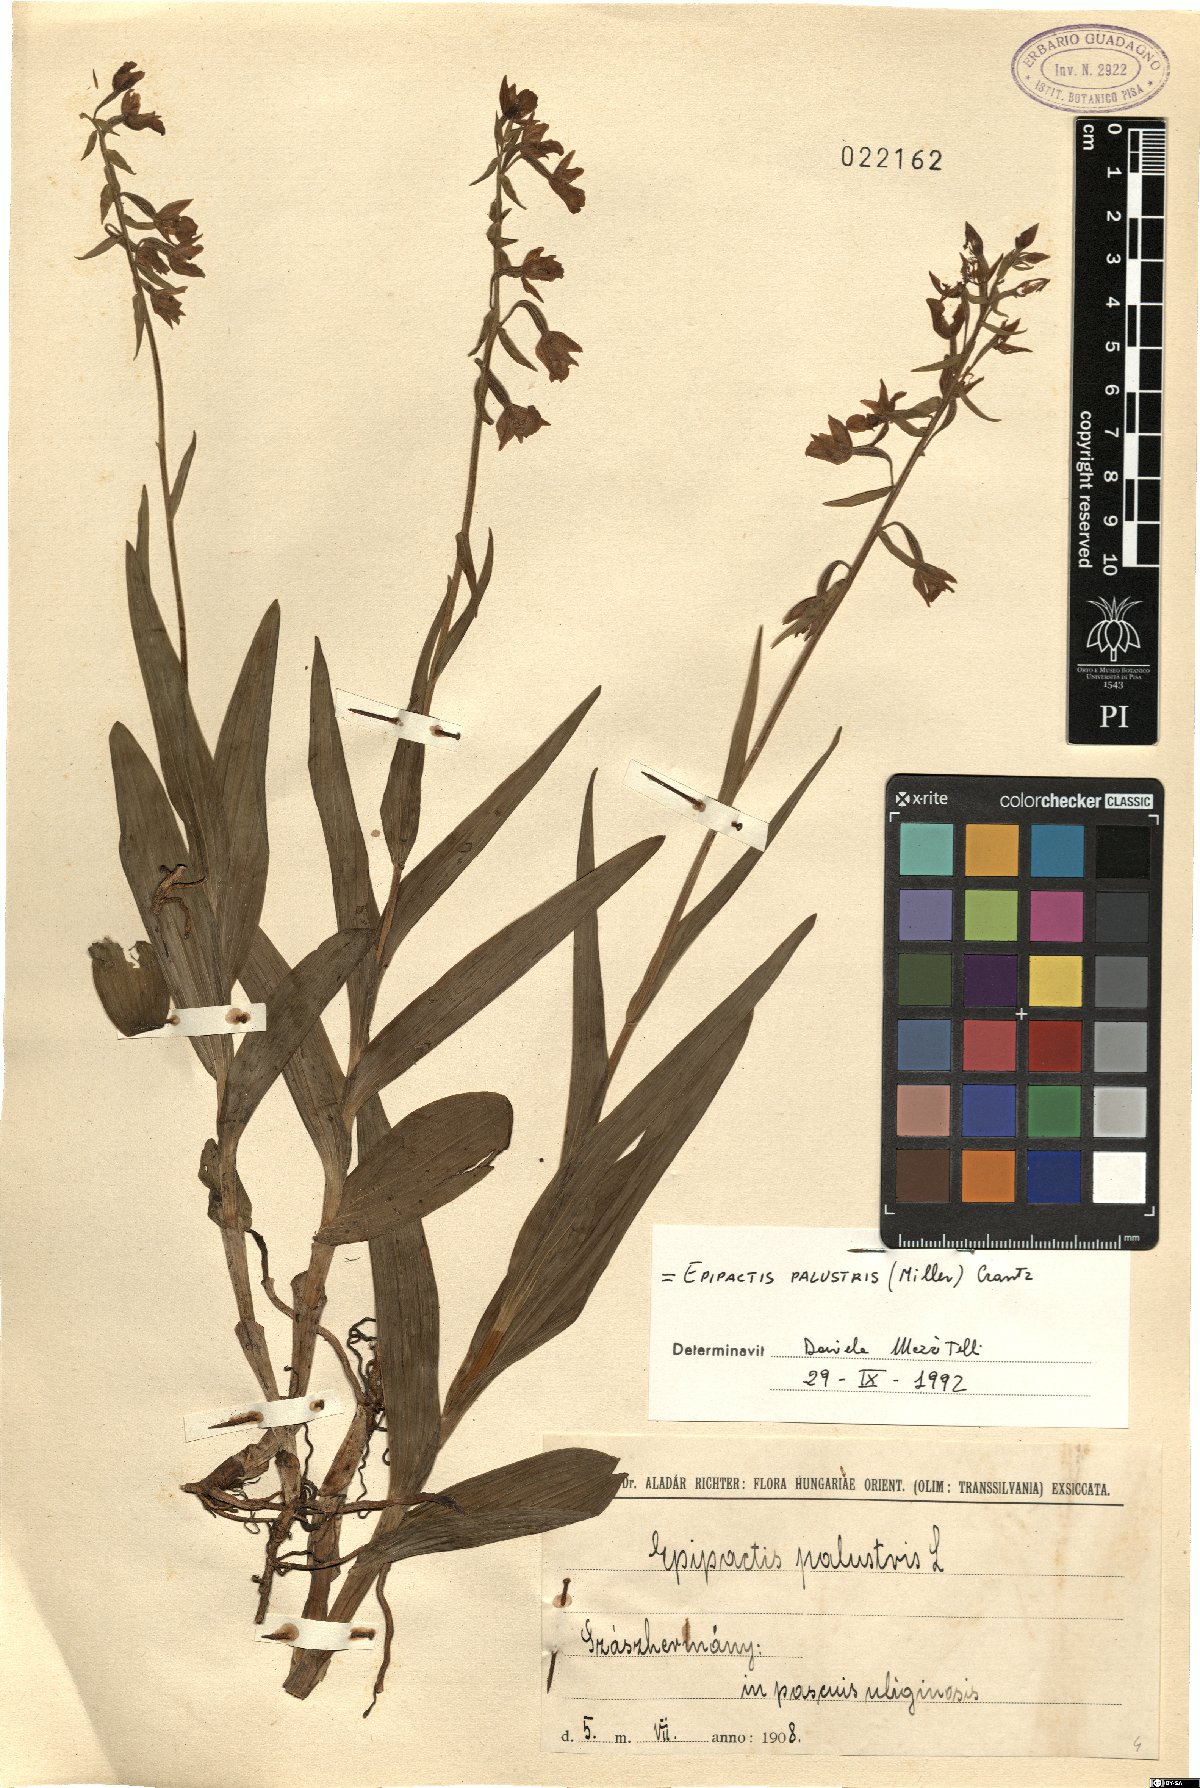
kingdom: Plantae
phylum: Tracheophyta
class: Liliopsida
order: Asparagales
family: Orchidaceae
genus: Epipactis
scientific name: Epipactis palustris
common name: Marsh helleborine
